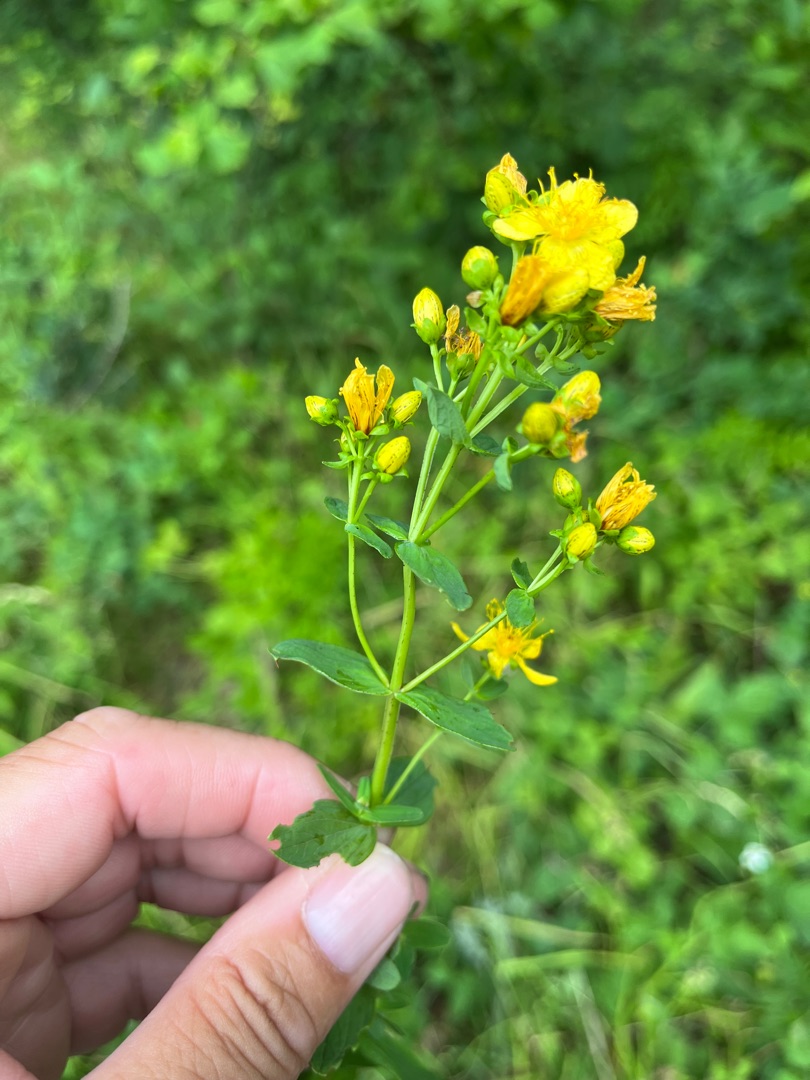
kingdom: Plantae
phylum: Tracheophyta
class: Magnoliopsida
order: Malpighiales
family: Hypericaceae
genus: Hypericum
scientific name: Hypericum maculatum
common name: Kantet perikon
